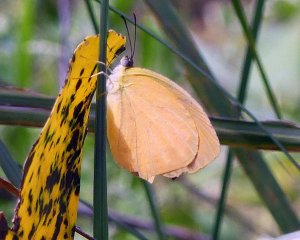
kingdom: Animalia
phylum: Arthropoda
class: Insecta
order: Lepidoptera
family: Pieridae
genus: Pyrisitia
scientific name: Pyrisitia proterpia
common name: Tailed Orange
